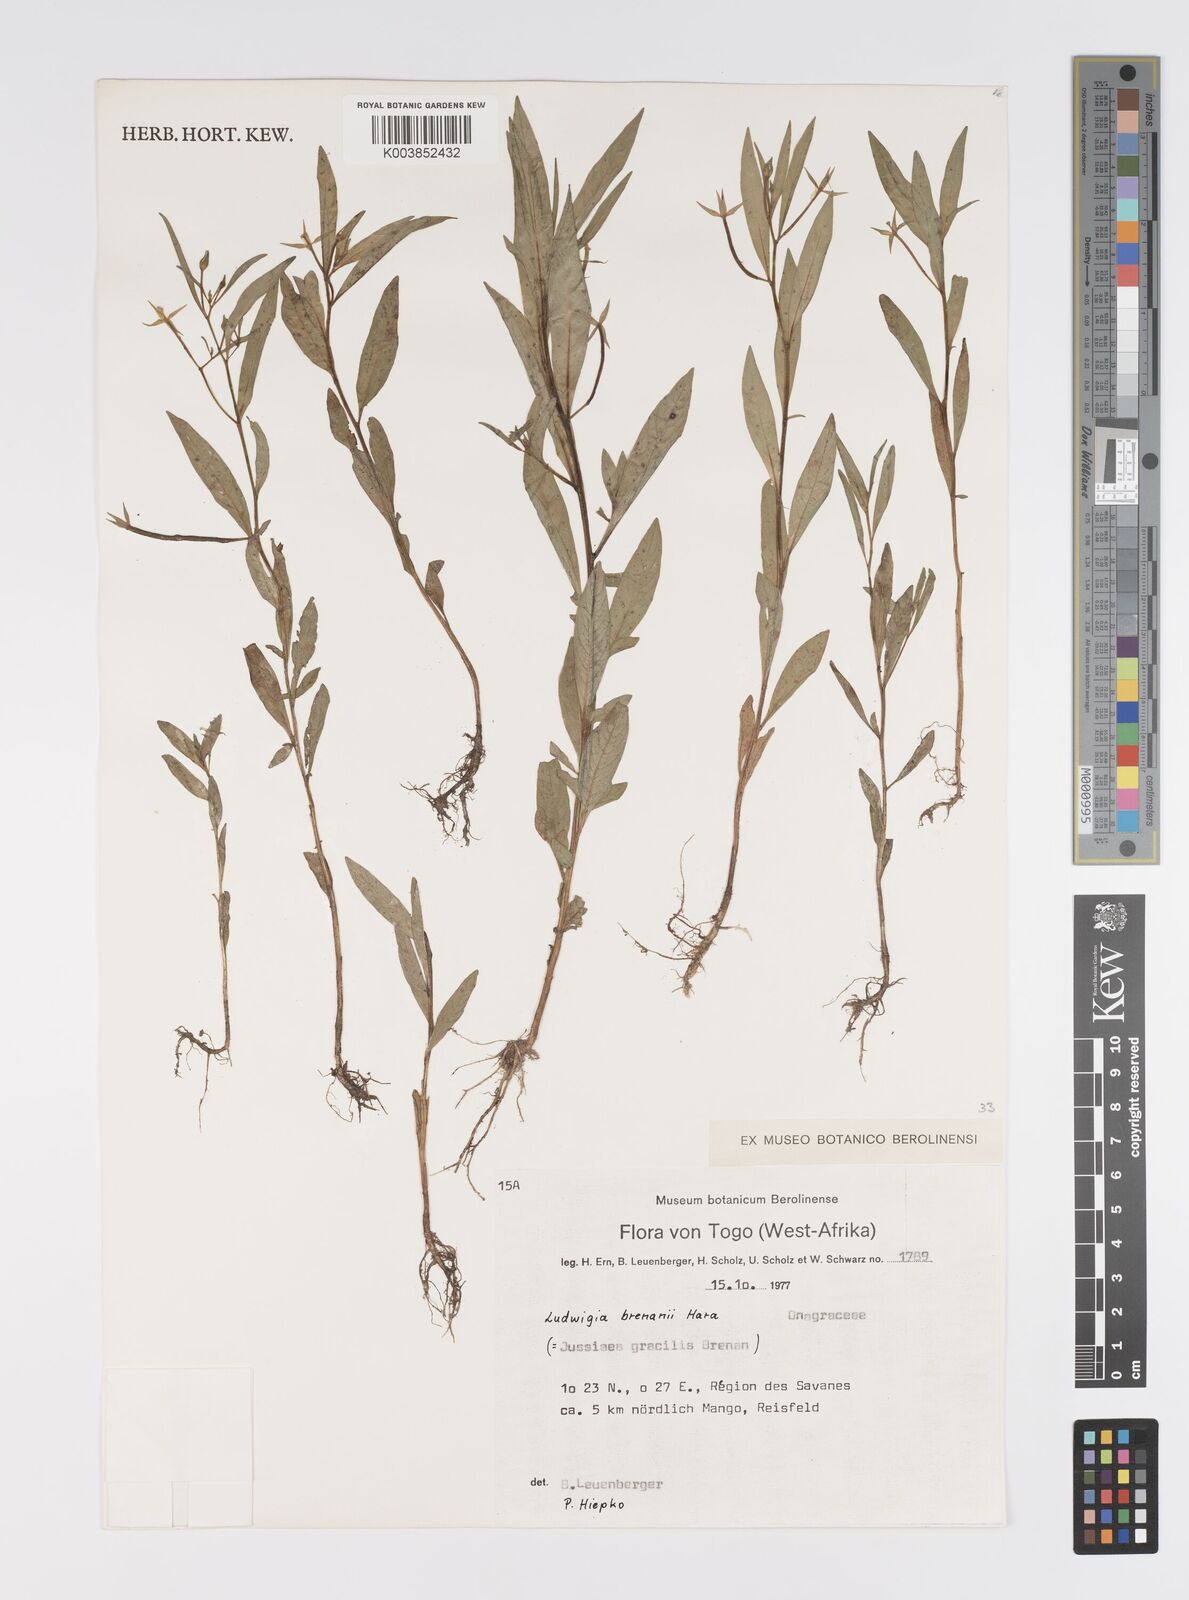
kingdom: Plantae
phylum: Tracheophyta
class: Magnoliopsida
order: Myrtales
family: Onagraceae
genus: Ludwigia
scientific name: Ludwigia brenanii
